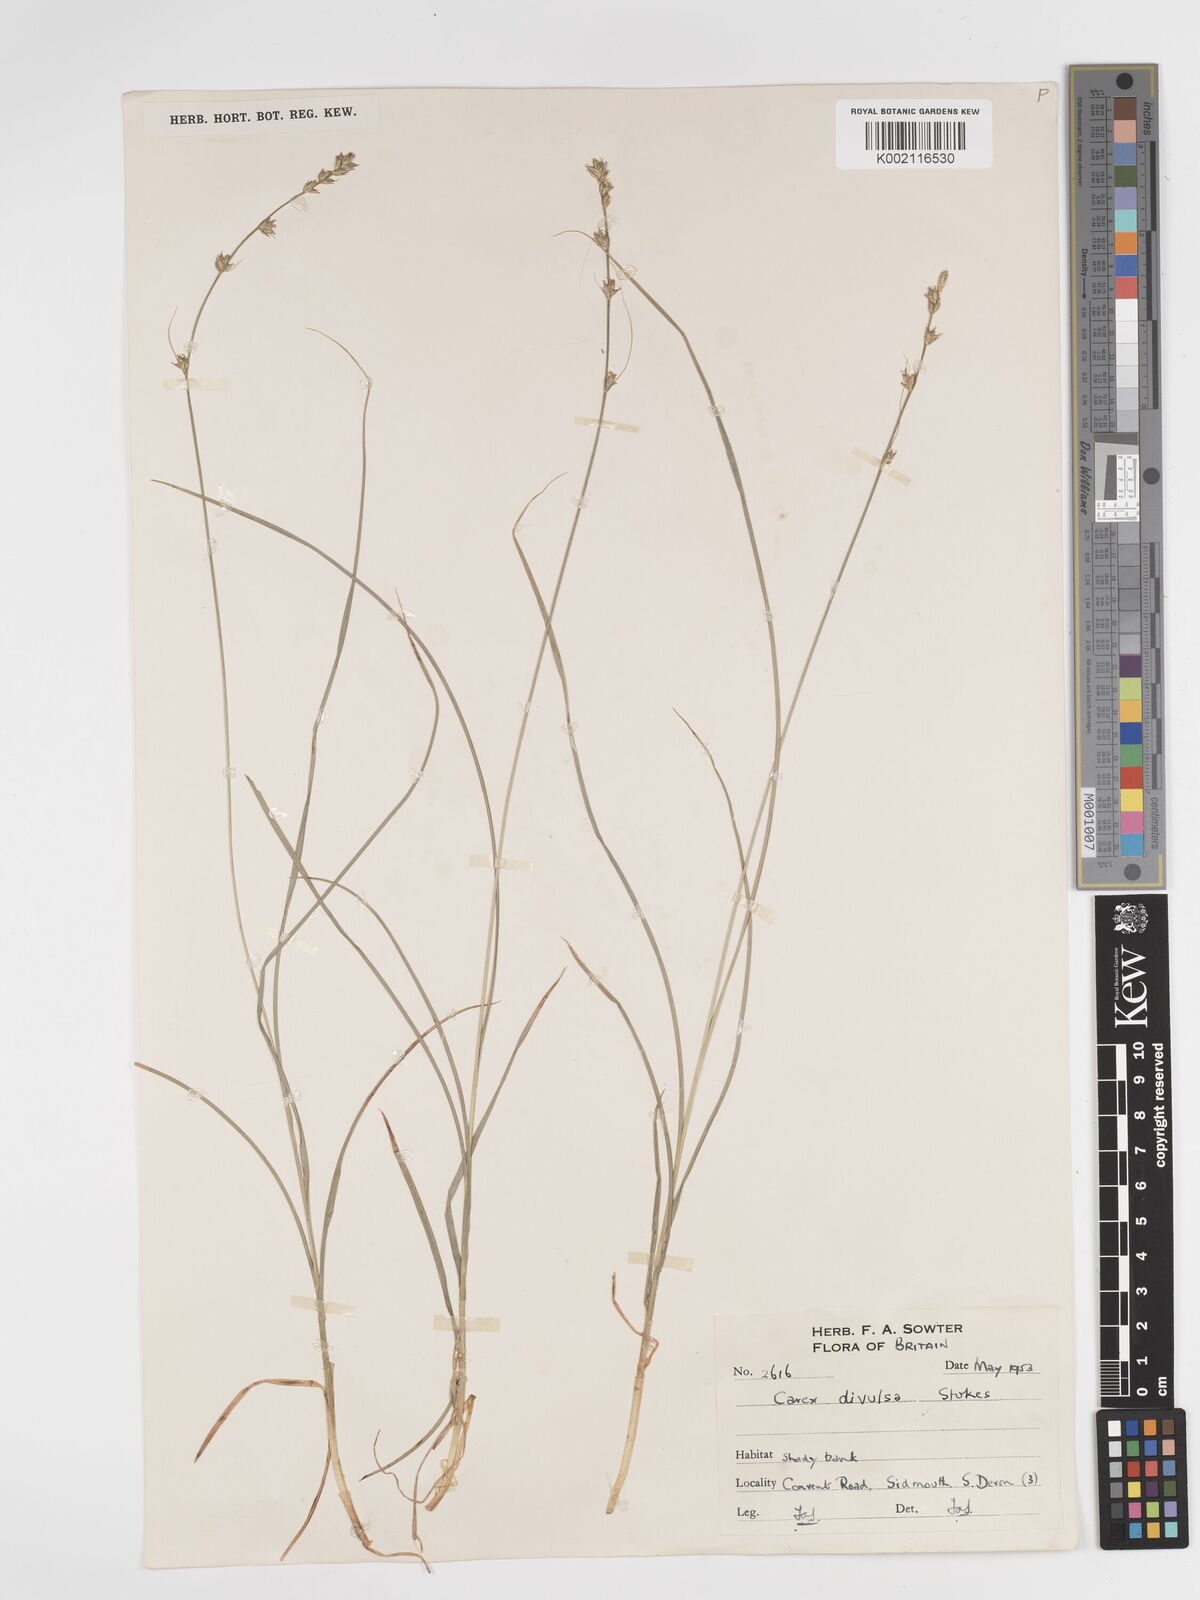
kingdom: Plantae
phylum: Tracheophyta
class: Liliopsida
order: Poales
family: Cyperaceae
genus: Carex
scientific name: Carex divulsa
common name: Grassland sedge
